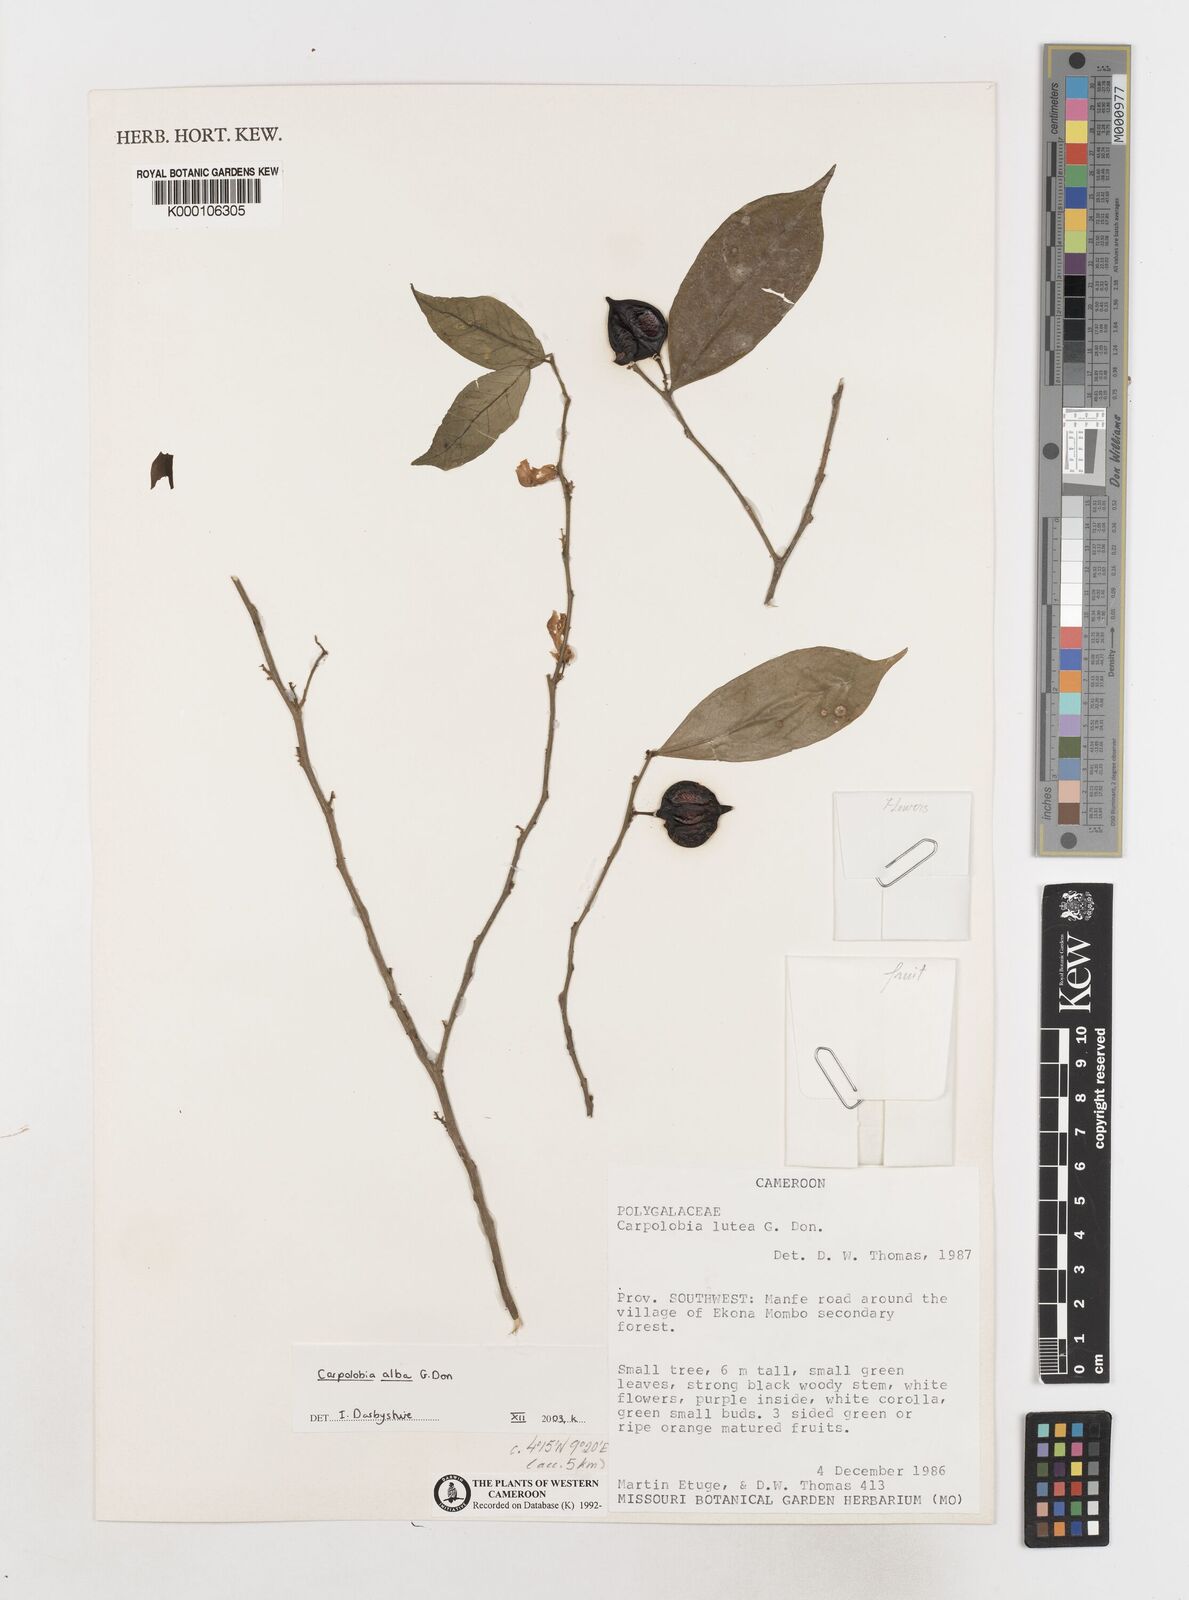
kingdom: Plantae
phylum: Tracheophyta
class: Magnoliopsida
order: Fabales
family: Polygalaceae
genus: Carpolobia
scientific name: Carpolobia alba
